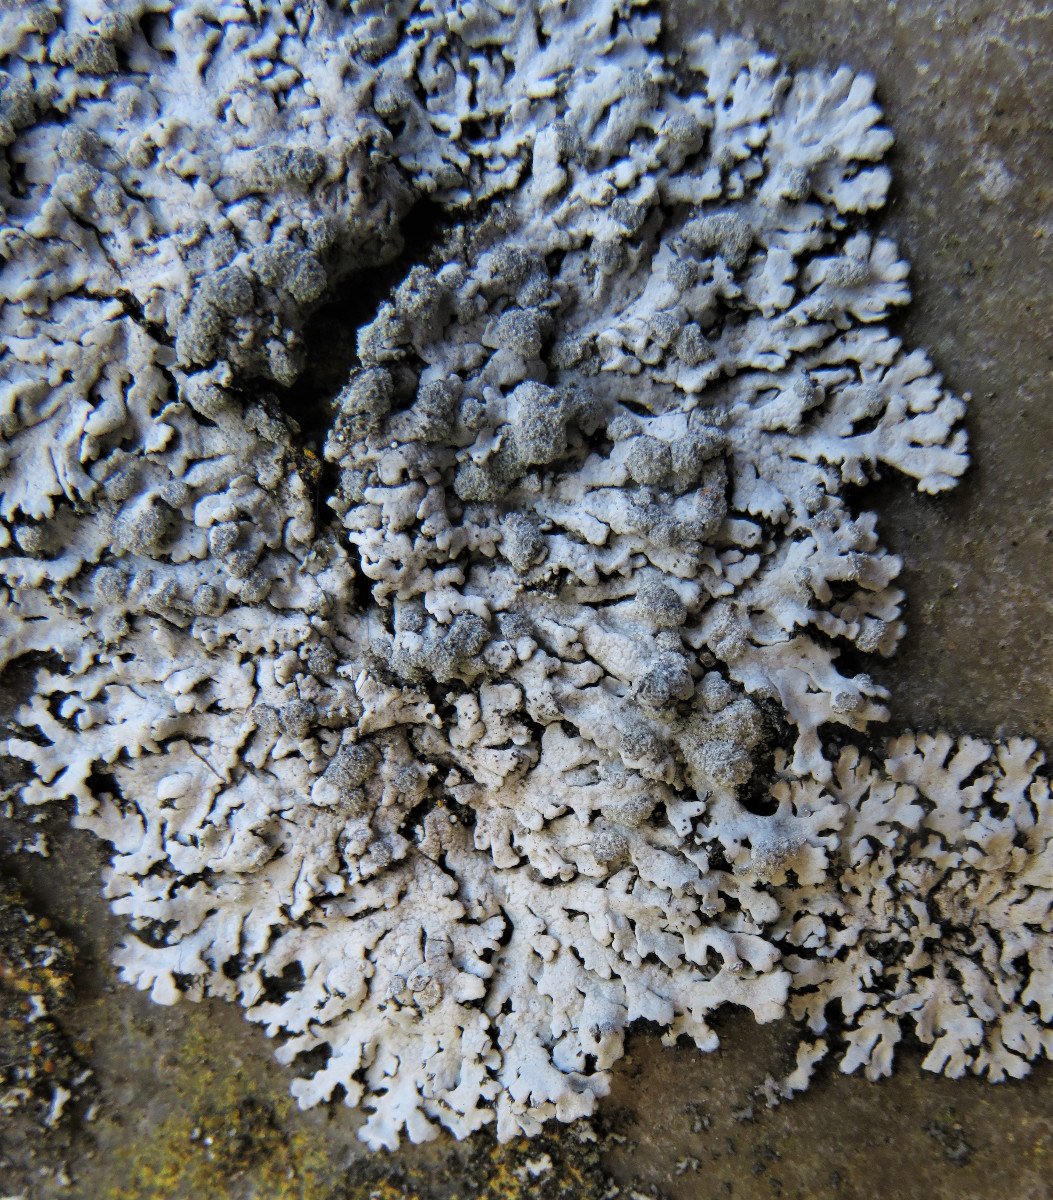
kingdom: Fungi
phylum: Ascomycota
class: Lecanoromycetes
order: Caliciales
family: Physciaceae
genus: Physcia
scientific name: Physcia caesia
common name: blågrå rosetlav
